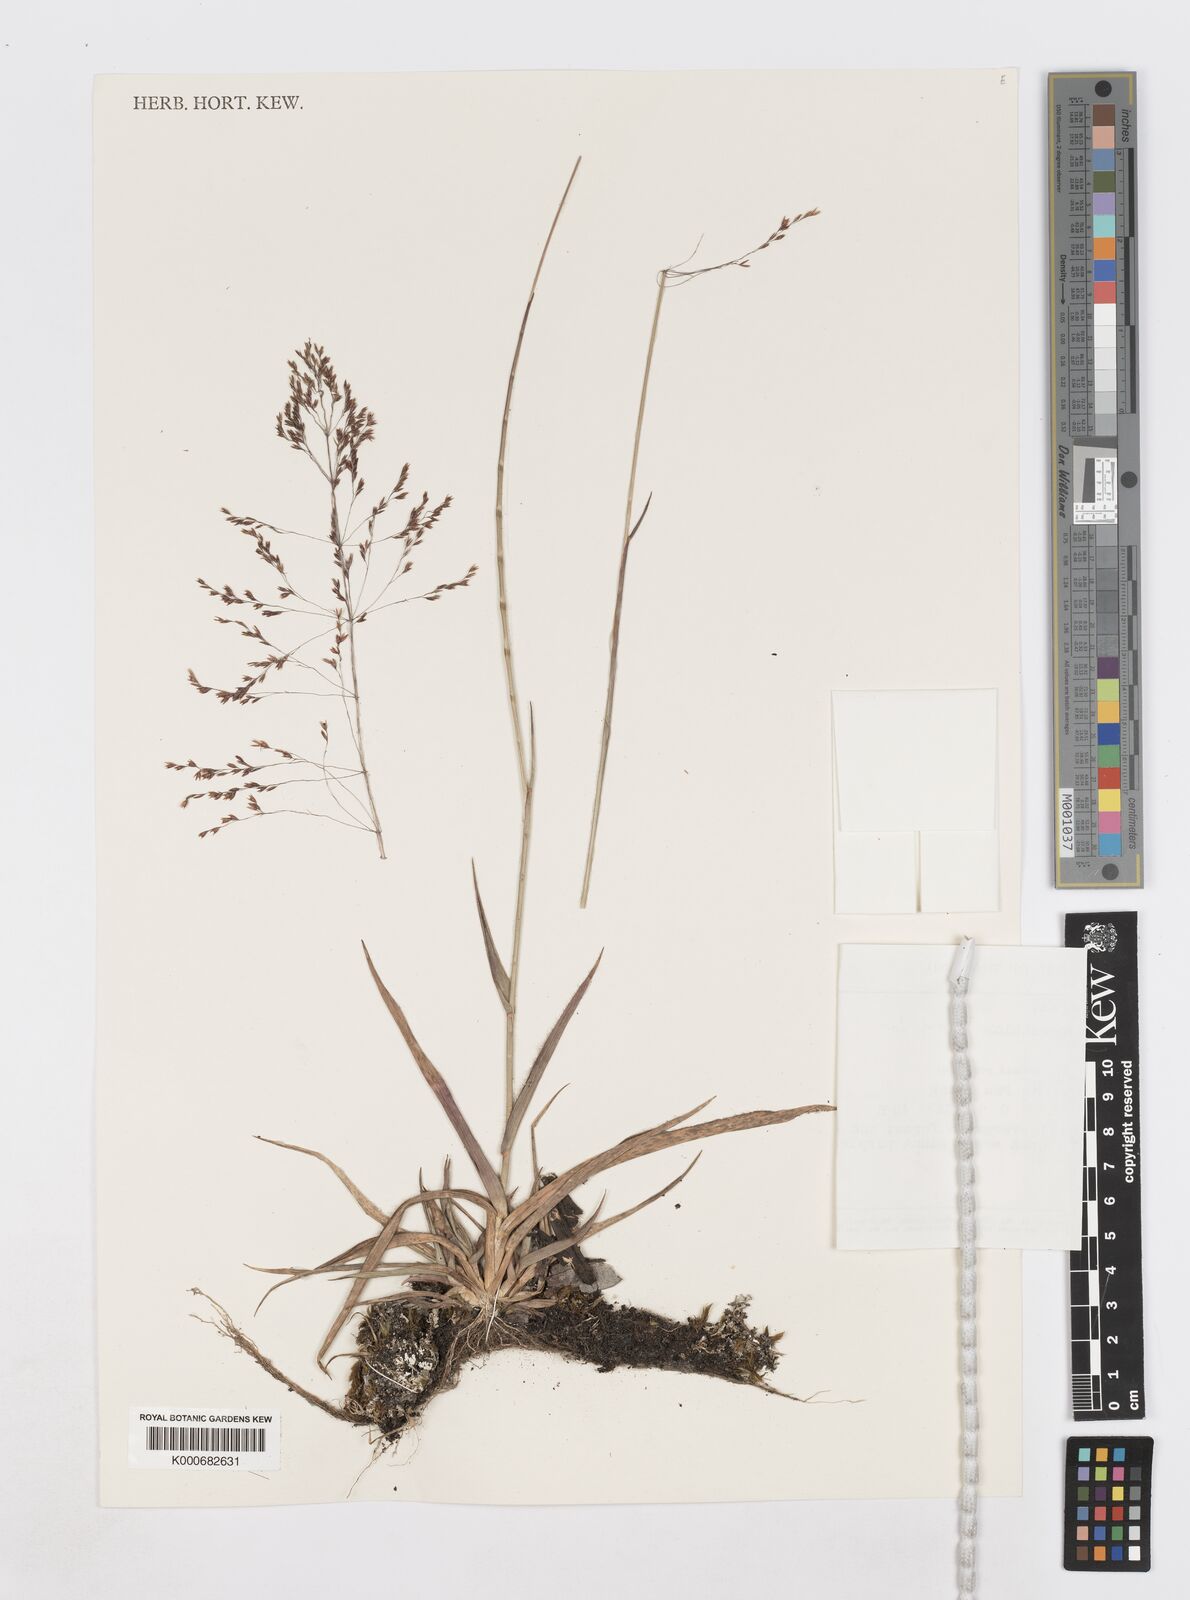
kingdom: Plantae
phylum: Tracheophyta
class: Liliopsida
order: Poales
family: Poaceae
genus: Sporobolus
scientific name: Sporobolus kerrii
